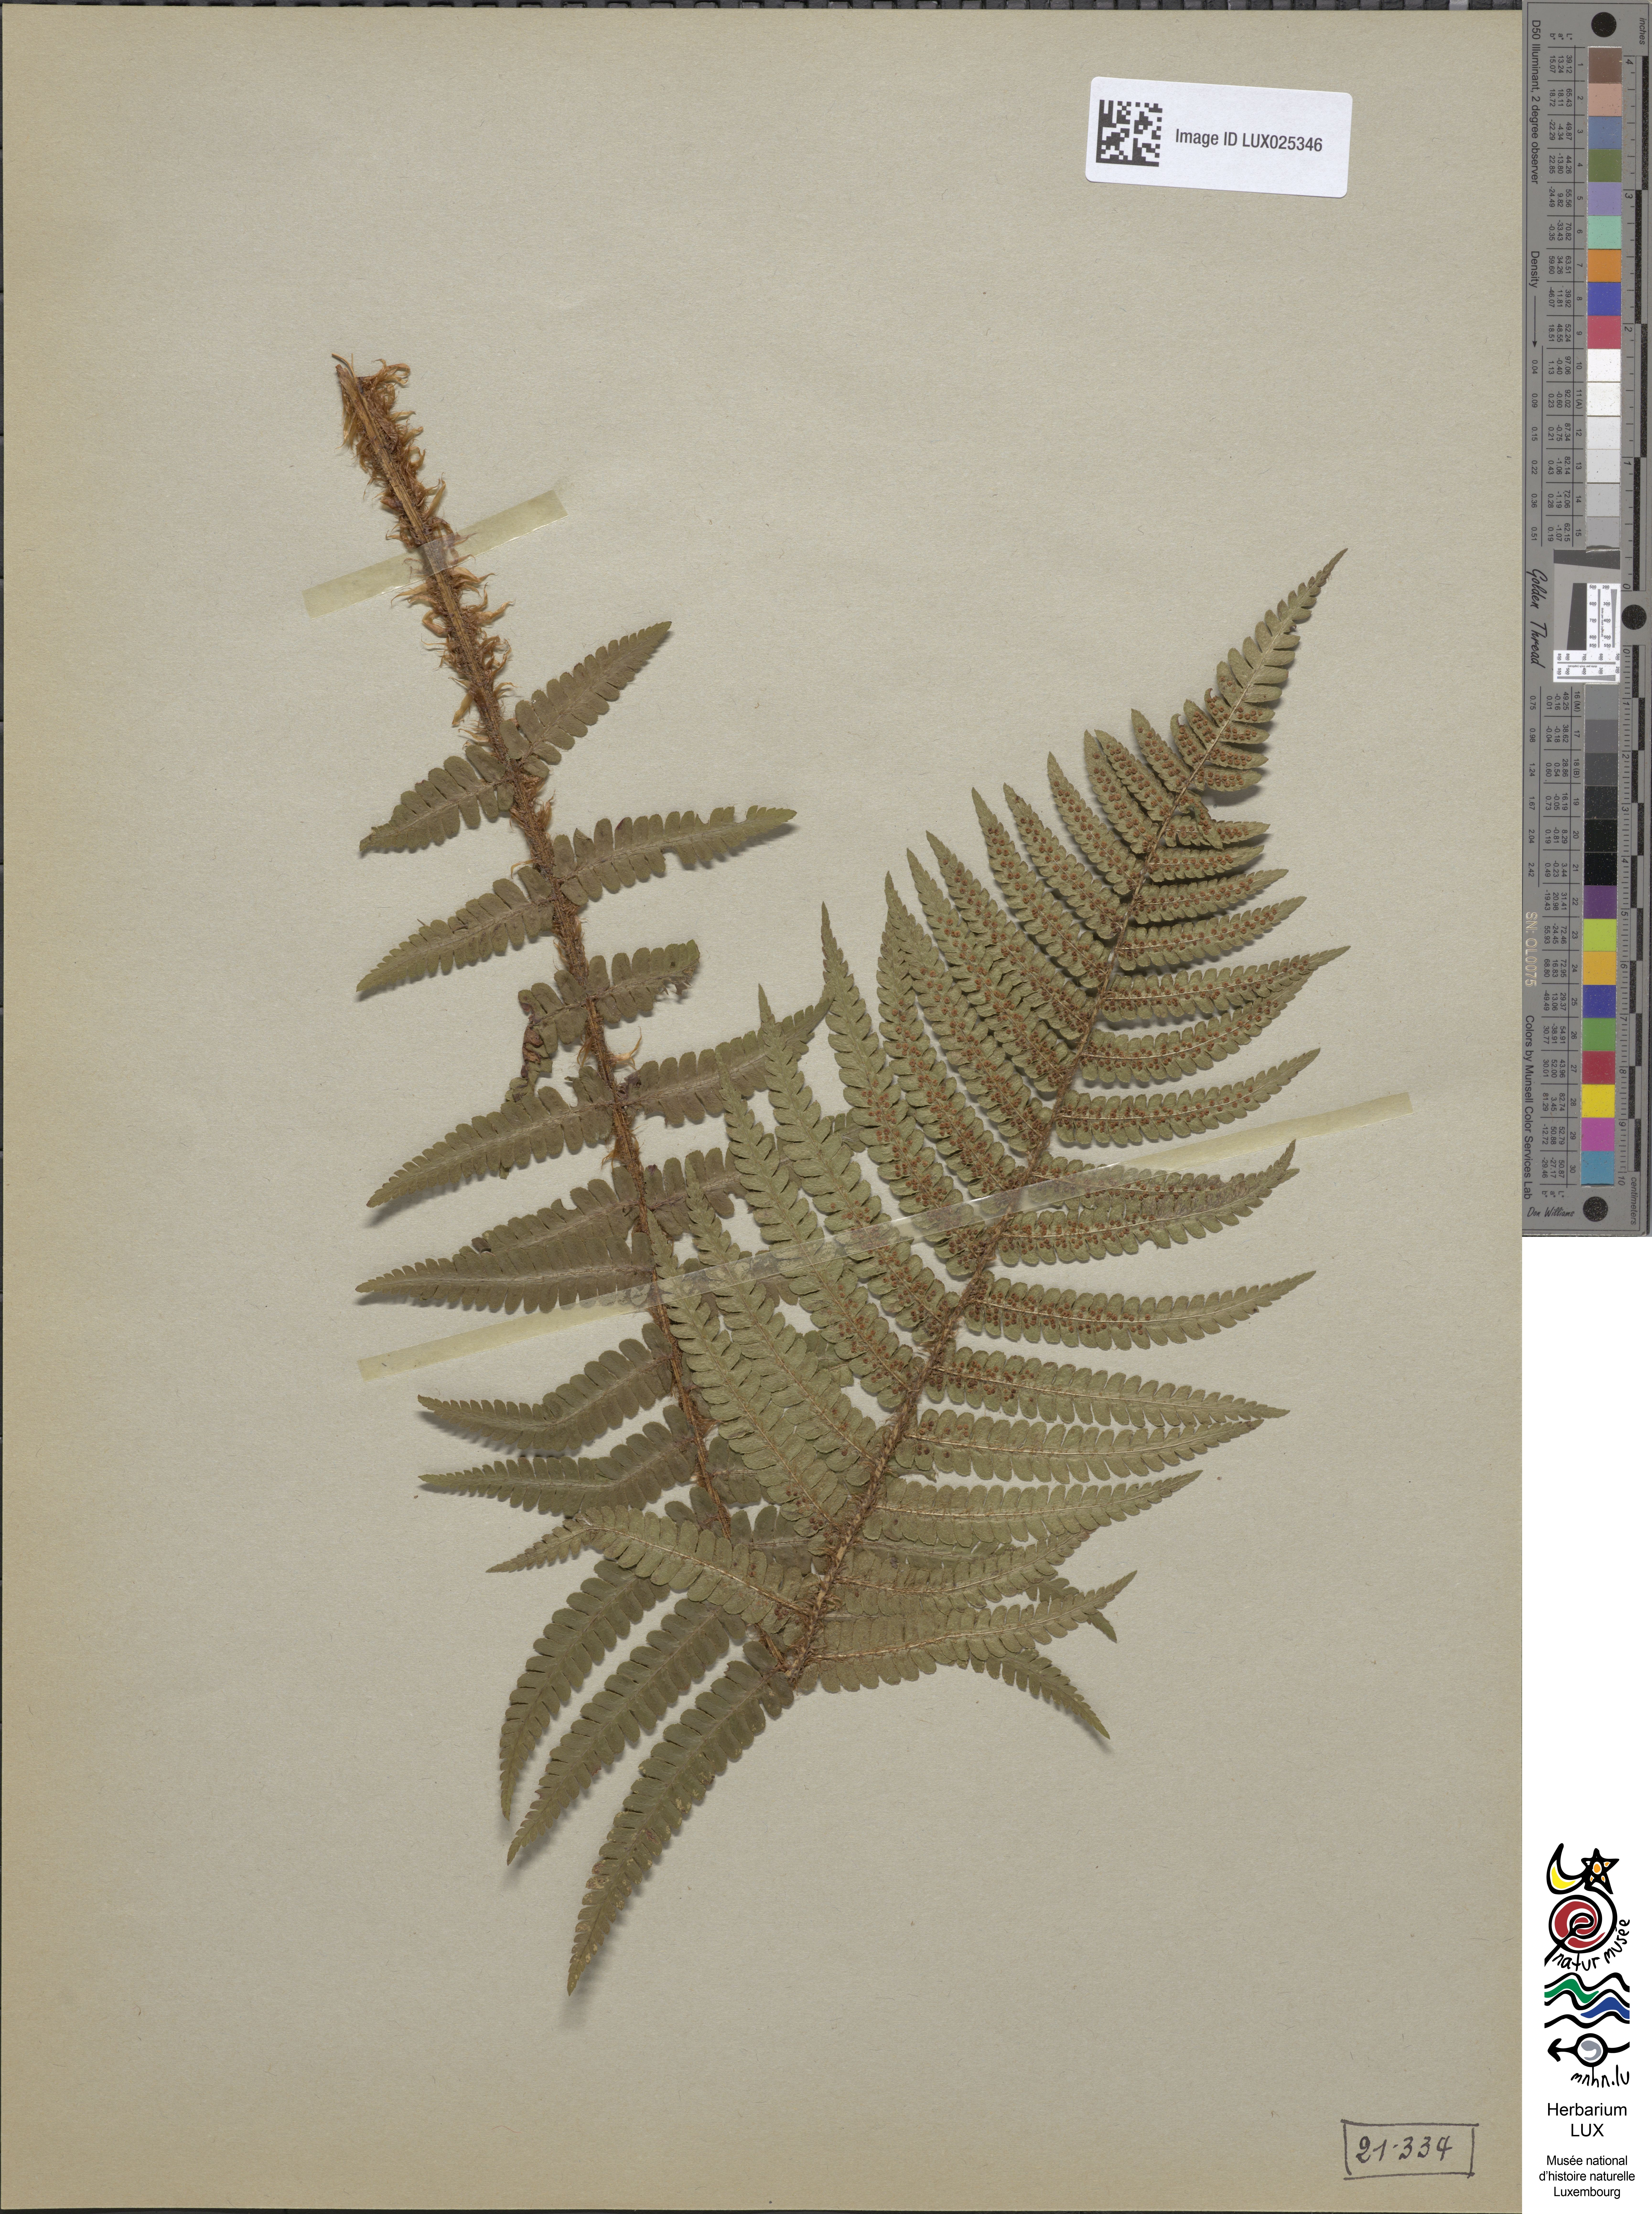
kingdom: Plantae
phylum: Tracheophyta
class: Polypodiopsida
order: Polypodiales
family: Dryopteridaceae
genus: Dryopteris
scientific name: Dryopteris borreri
